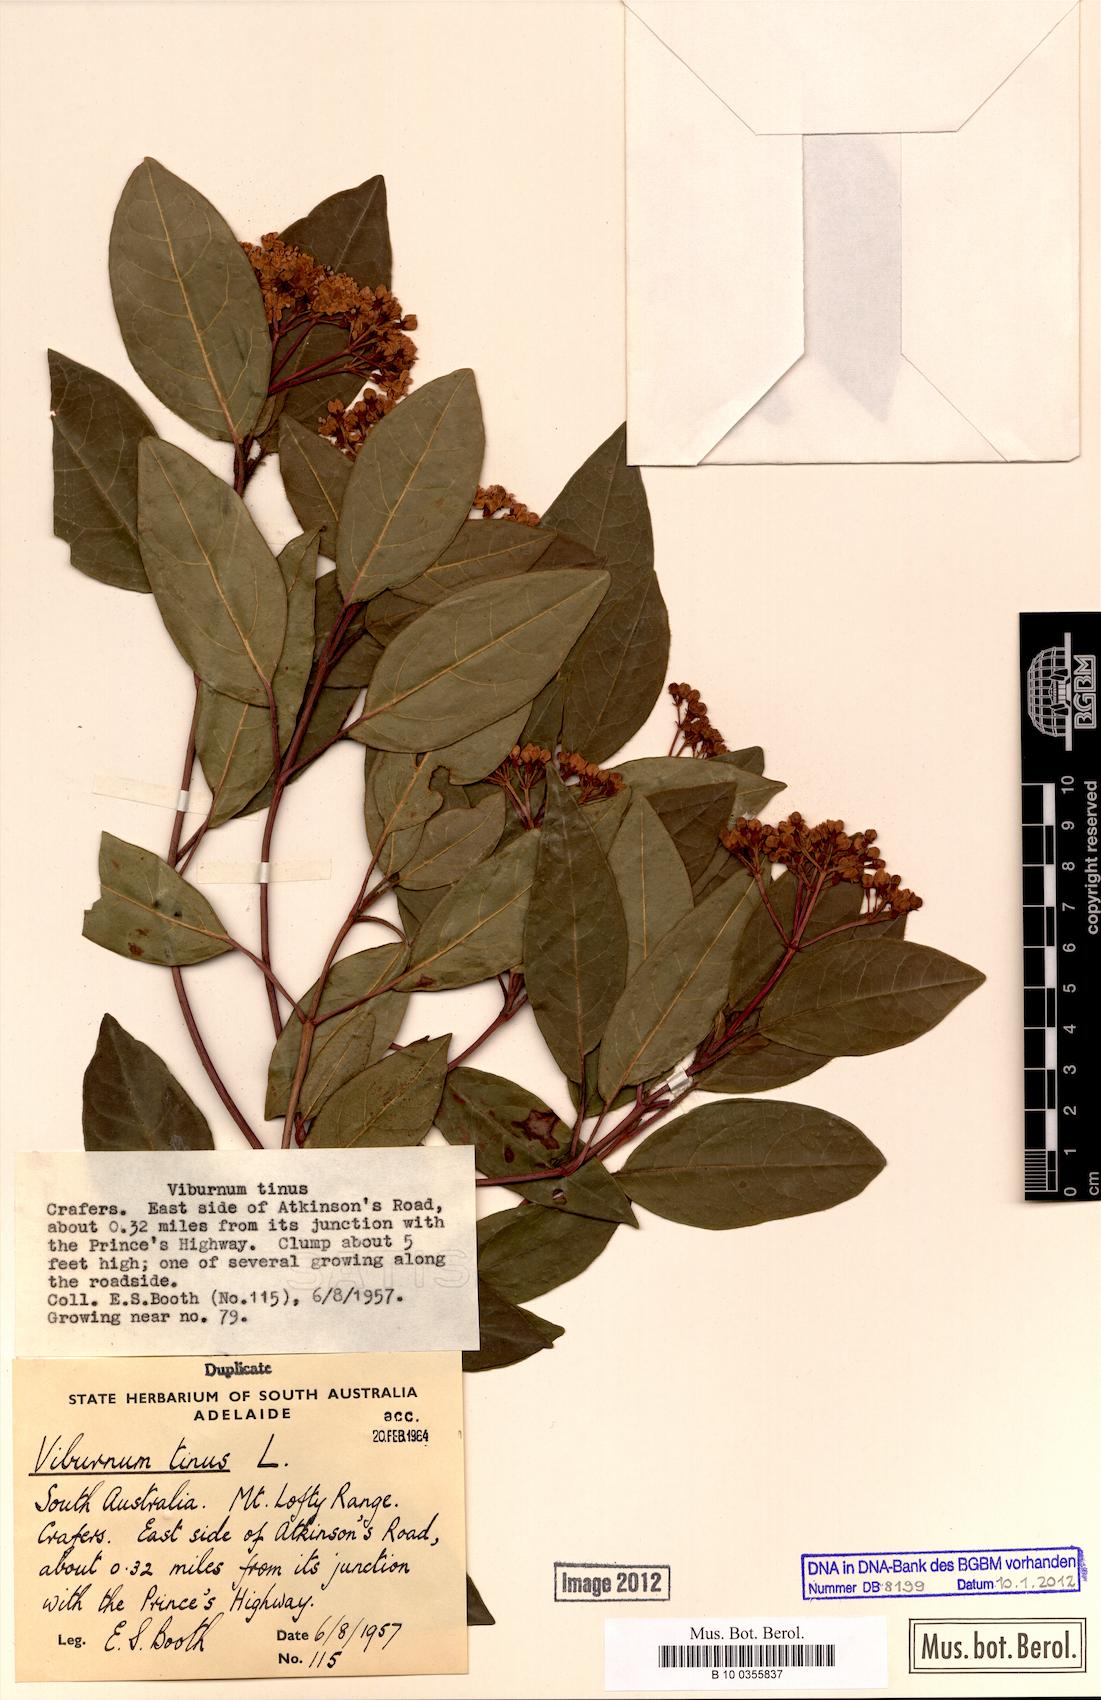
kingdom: Plantae
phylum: Tracheophyta
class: Magnoliopsida
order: Dipsacales
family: Viburnaceae
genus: Viburnum
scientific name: Viburnum tinus
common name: Laurustinus
